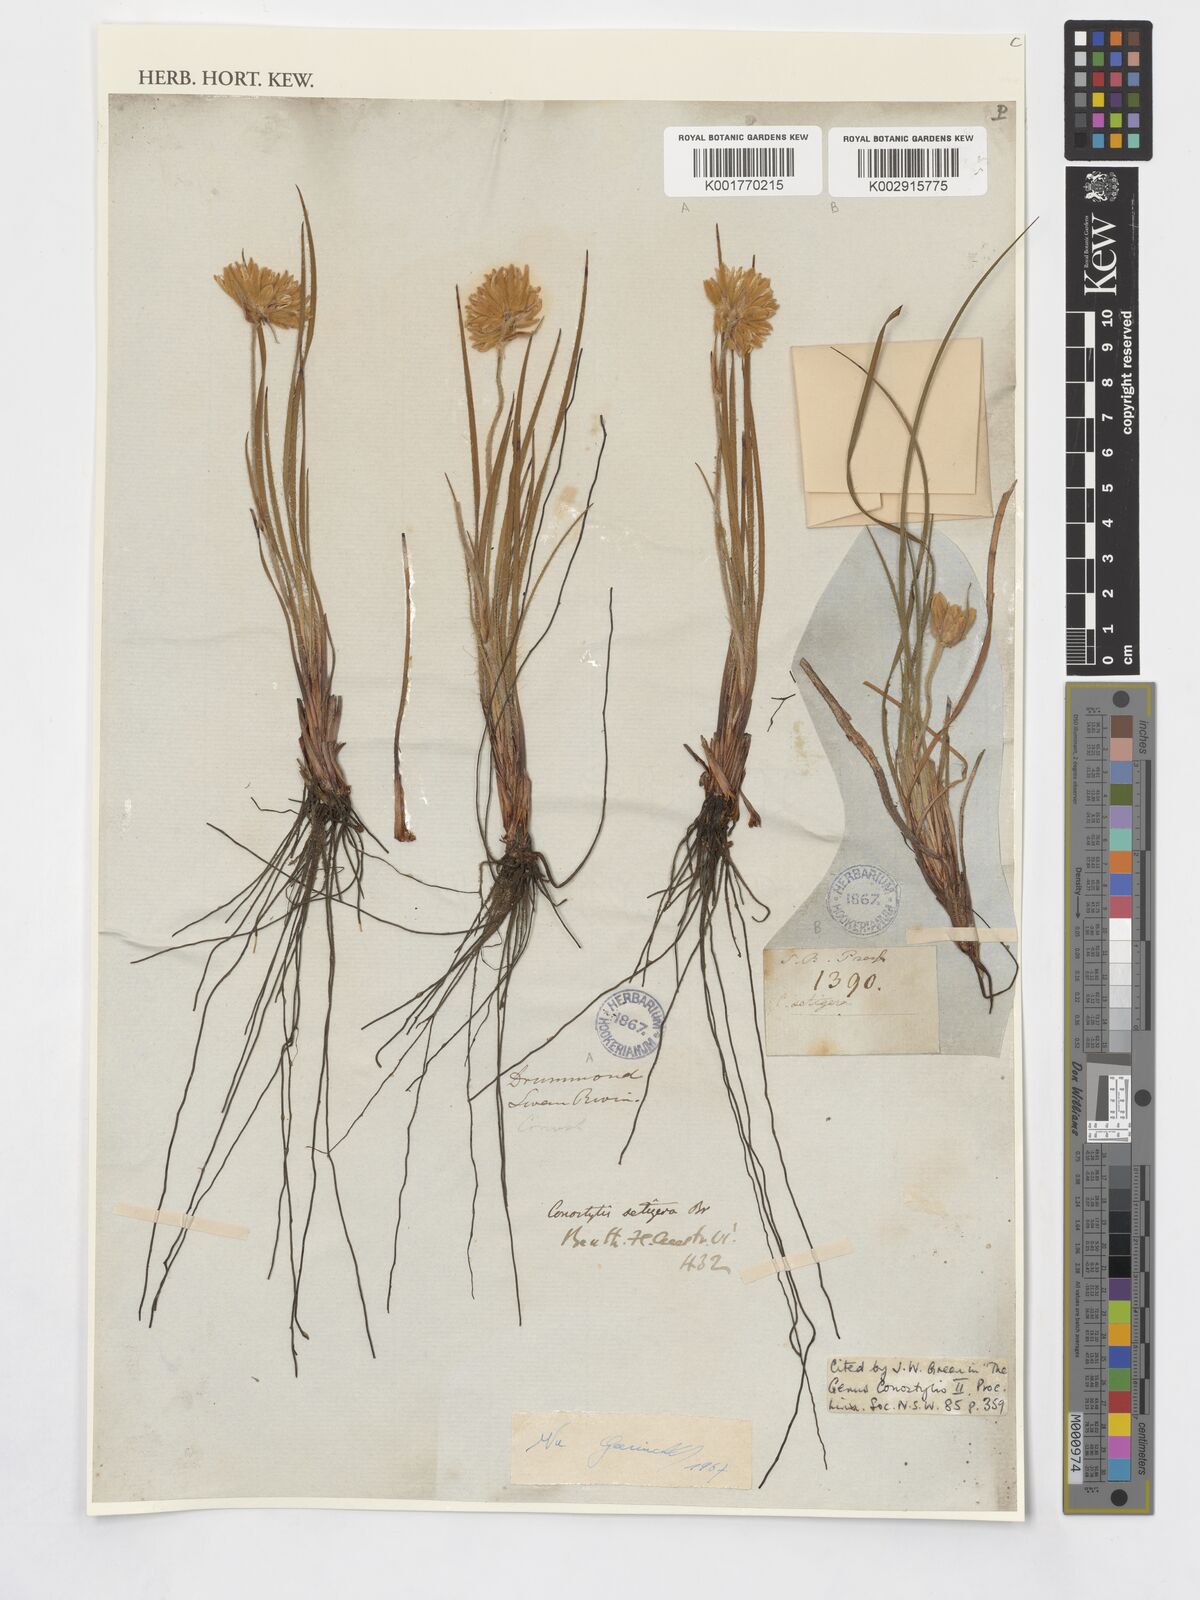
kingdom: Plantae
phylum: Tracheophyta
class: Liliopsida
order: Commelinales
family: Haemodoraceae
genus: Conostylis
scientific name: Conostylis setigera
